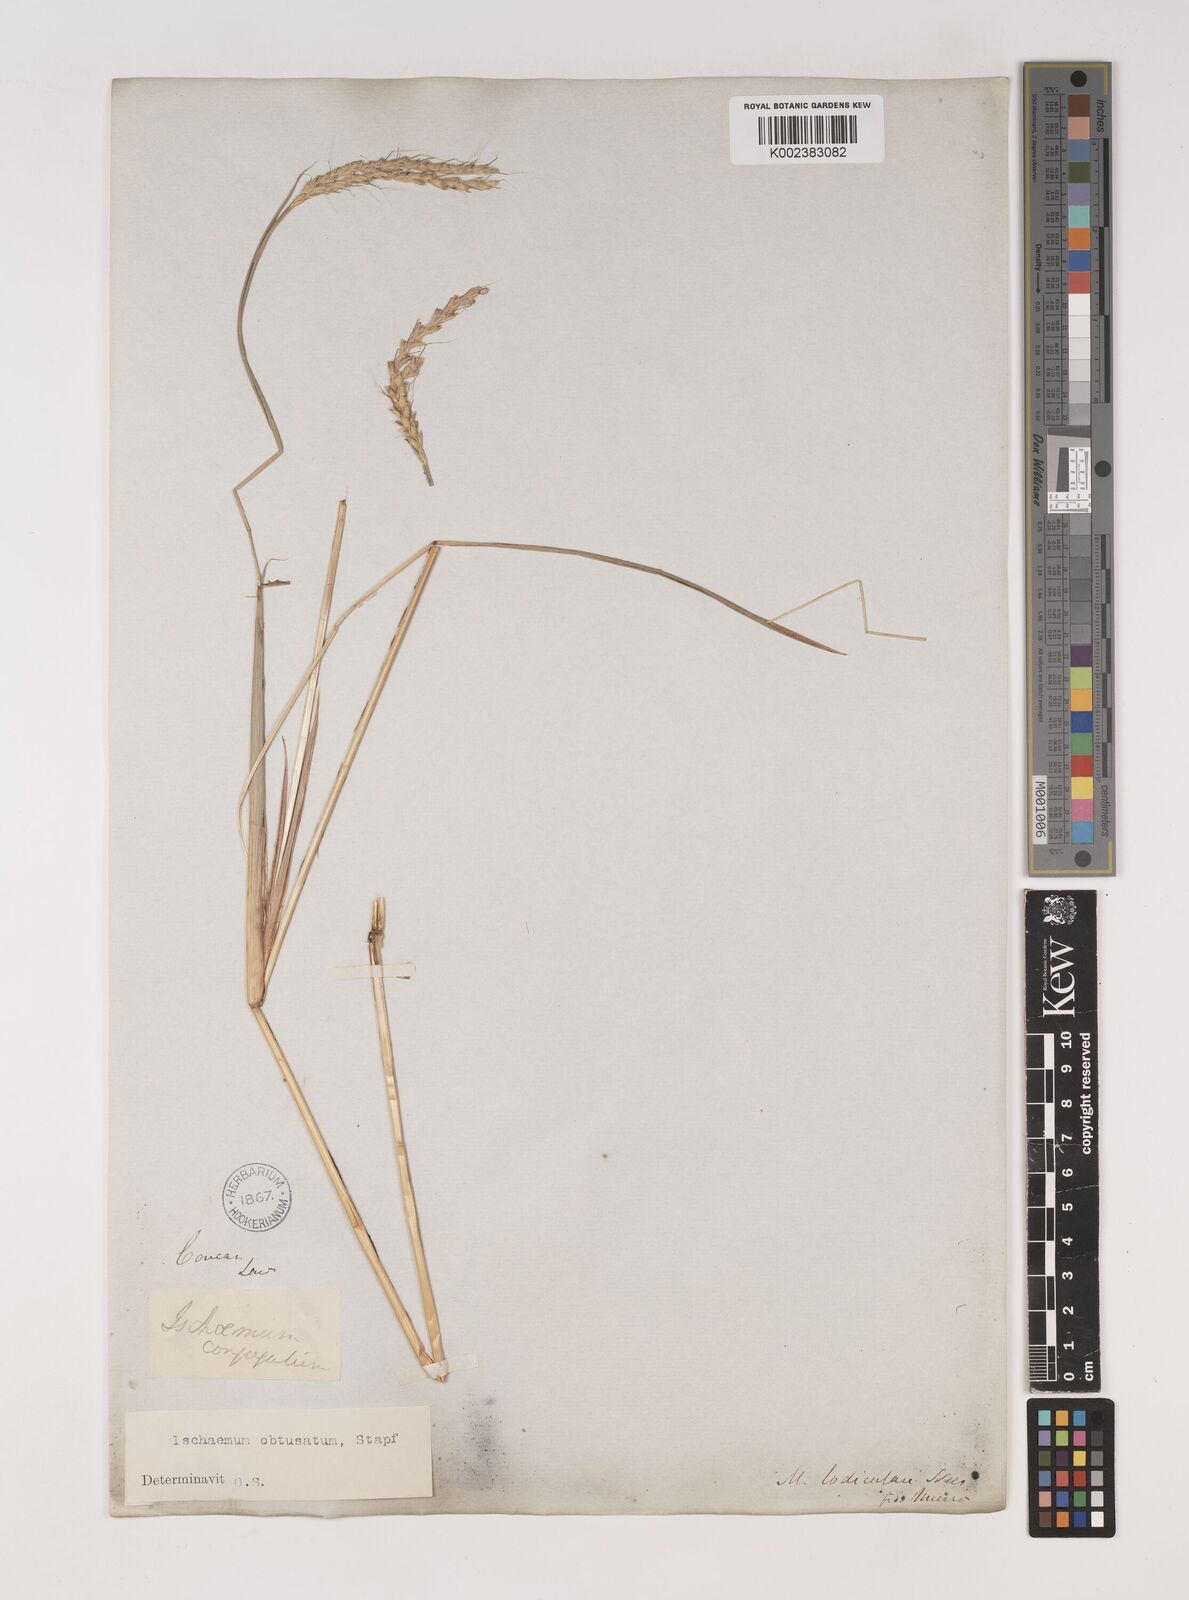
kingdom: Plantae
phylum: Tracheophyta
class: Liliopsida
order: Poales
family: Poaceae
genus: Ischaemum
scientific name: Ischaemum molle
